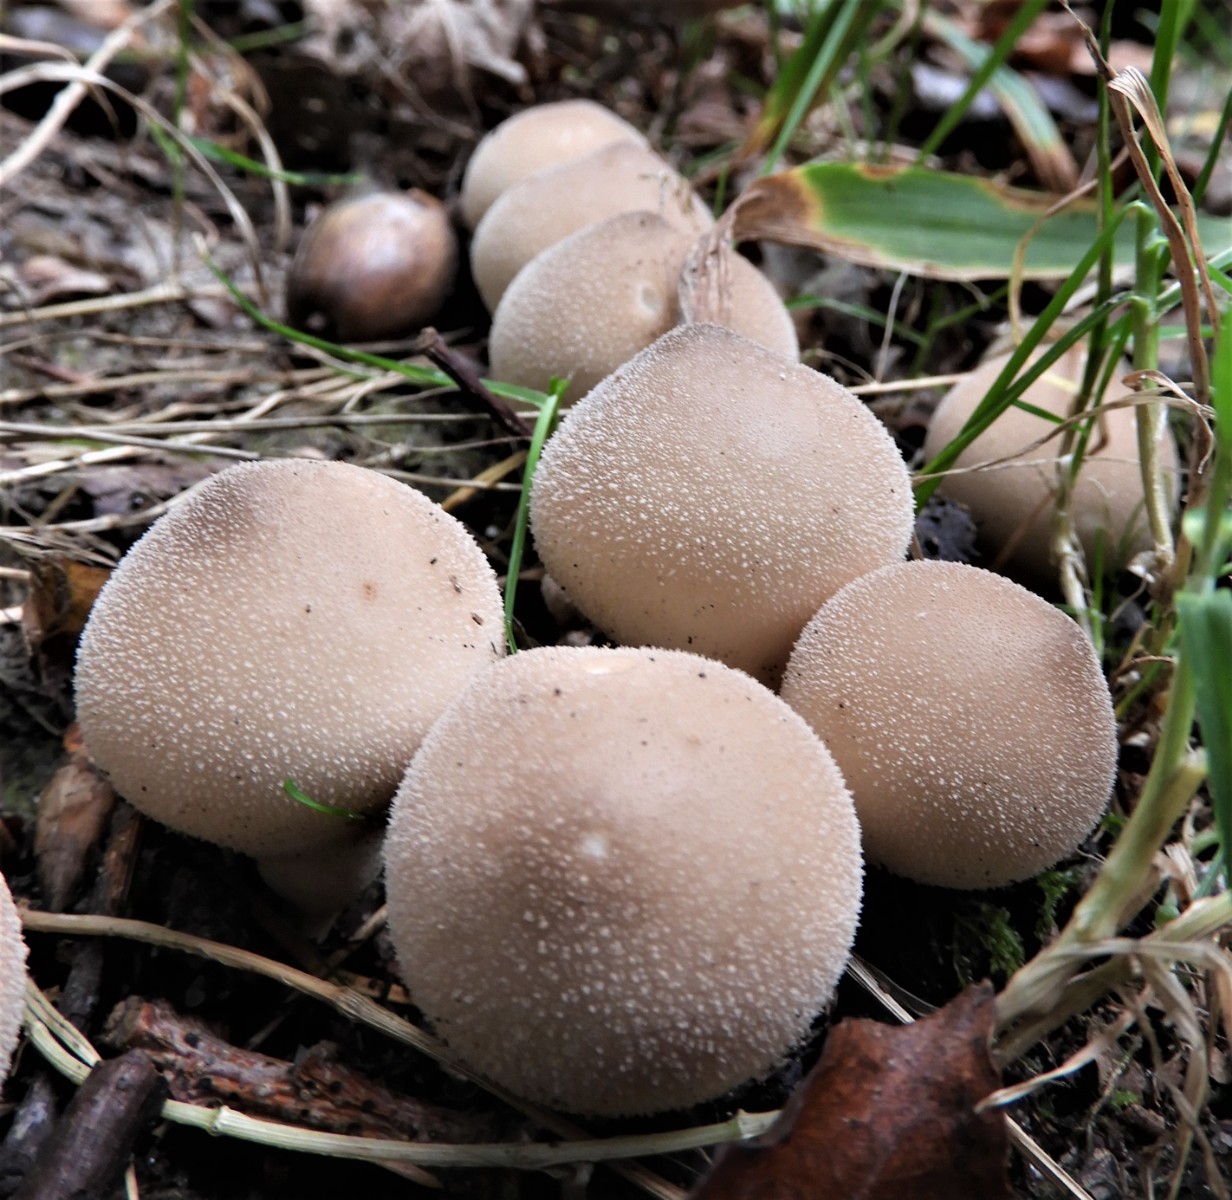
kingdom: Fungi
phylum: Basidiomycota
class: Agaricomycetes
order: Agaricales
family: Lycoperdaceae
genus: Apioperdon
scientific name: Apioperdon pyriforme
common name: pære-støvbold
